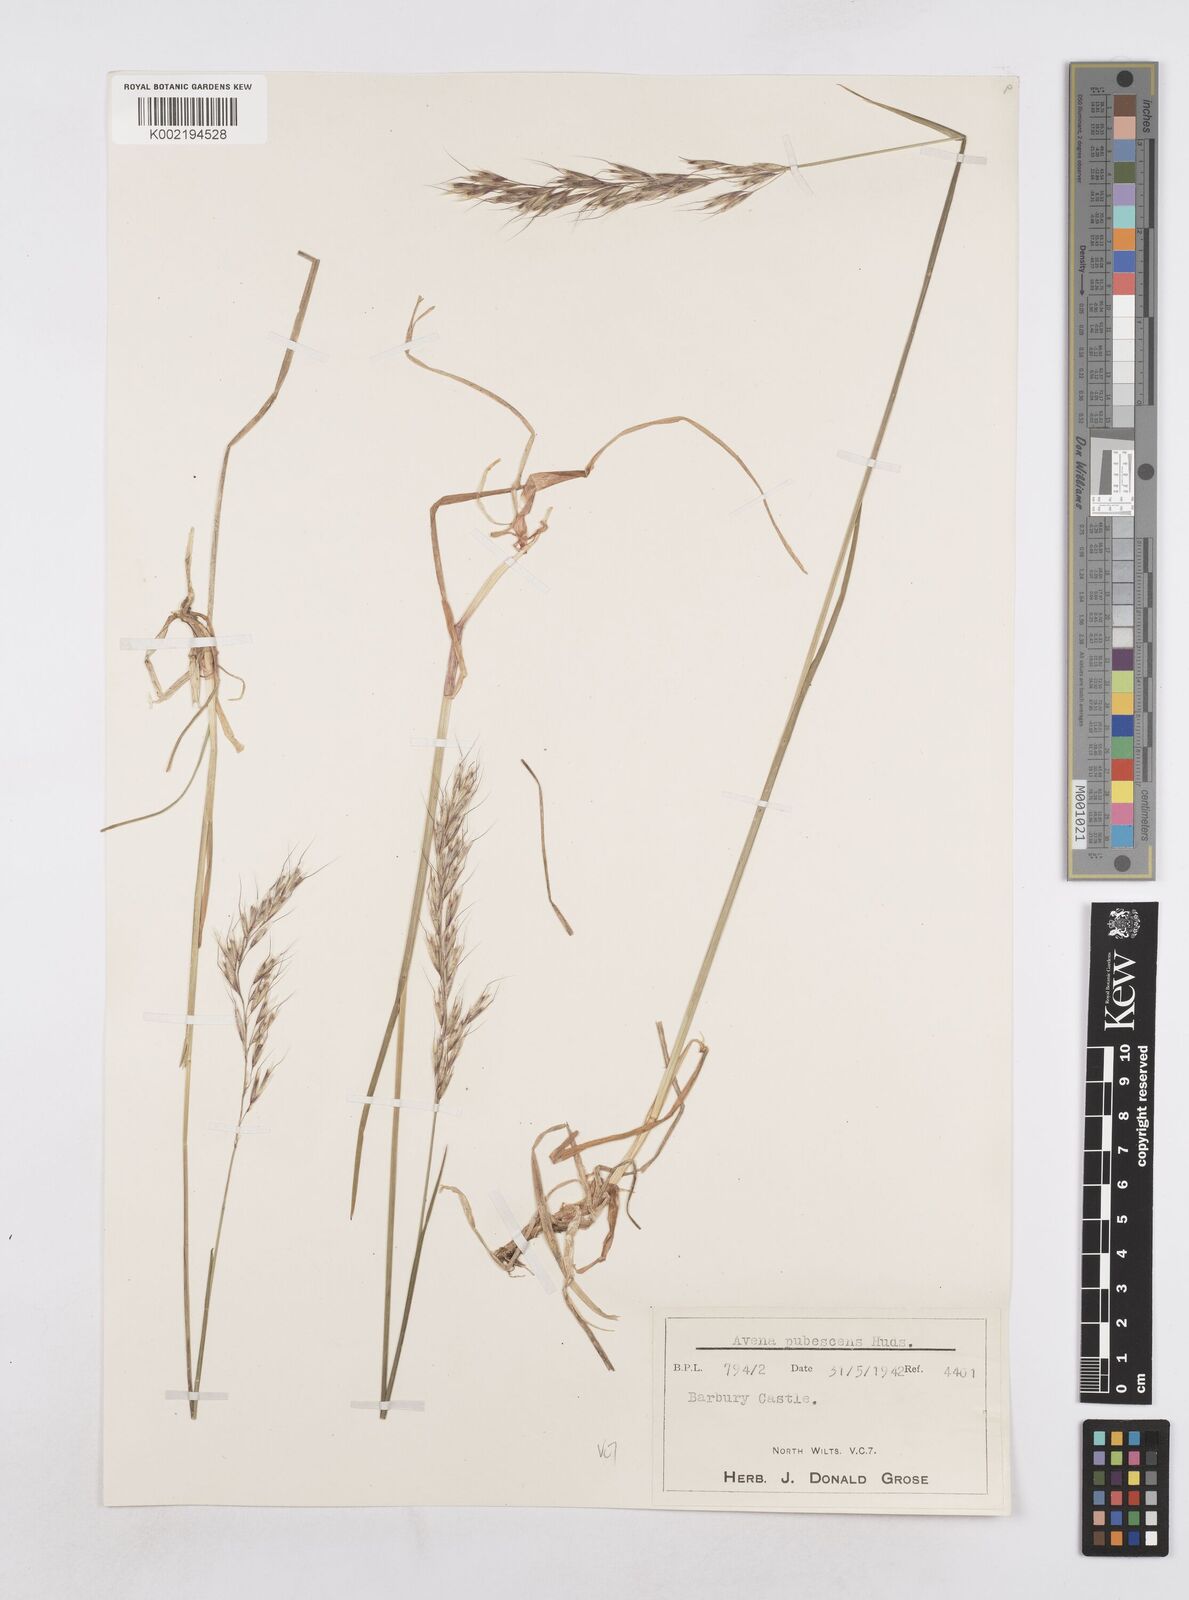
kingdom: Plantae
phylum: Tracheophyta
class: Liliopsida
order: Poales
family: Poaceae
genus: Avenula
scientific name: Avenula pubescens
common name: Downy alpine oatgrass
